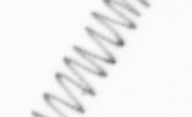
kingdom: Chromista
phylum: Ochrophyta
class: Bacillariophyceae
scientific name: Bacillariophyceae
